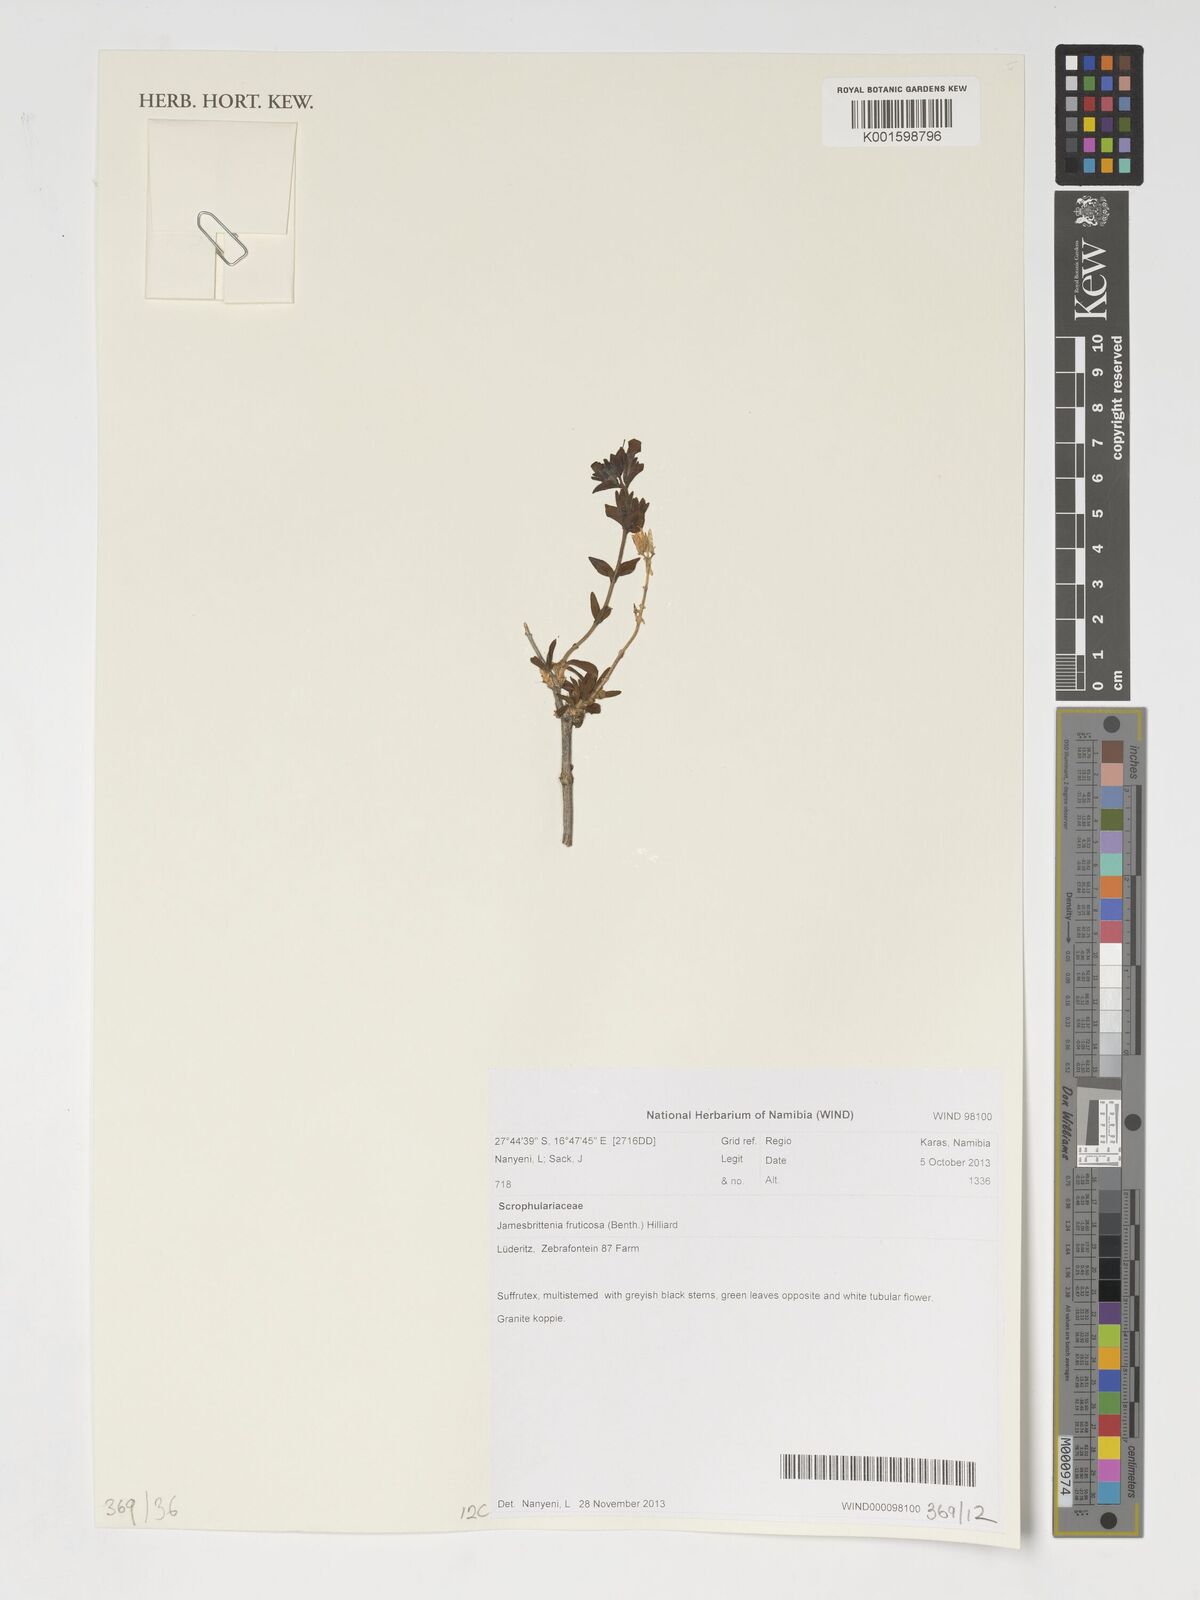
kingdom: Plantae
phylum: Tracheophyta
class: Magnoliopsida
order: Lamiales
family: Scrophulariaceae
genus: Jamesbrittenia
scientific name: Jamesbrittenia fruticosa
